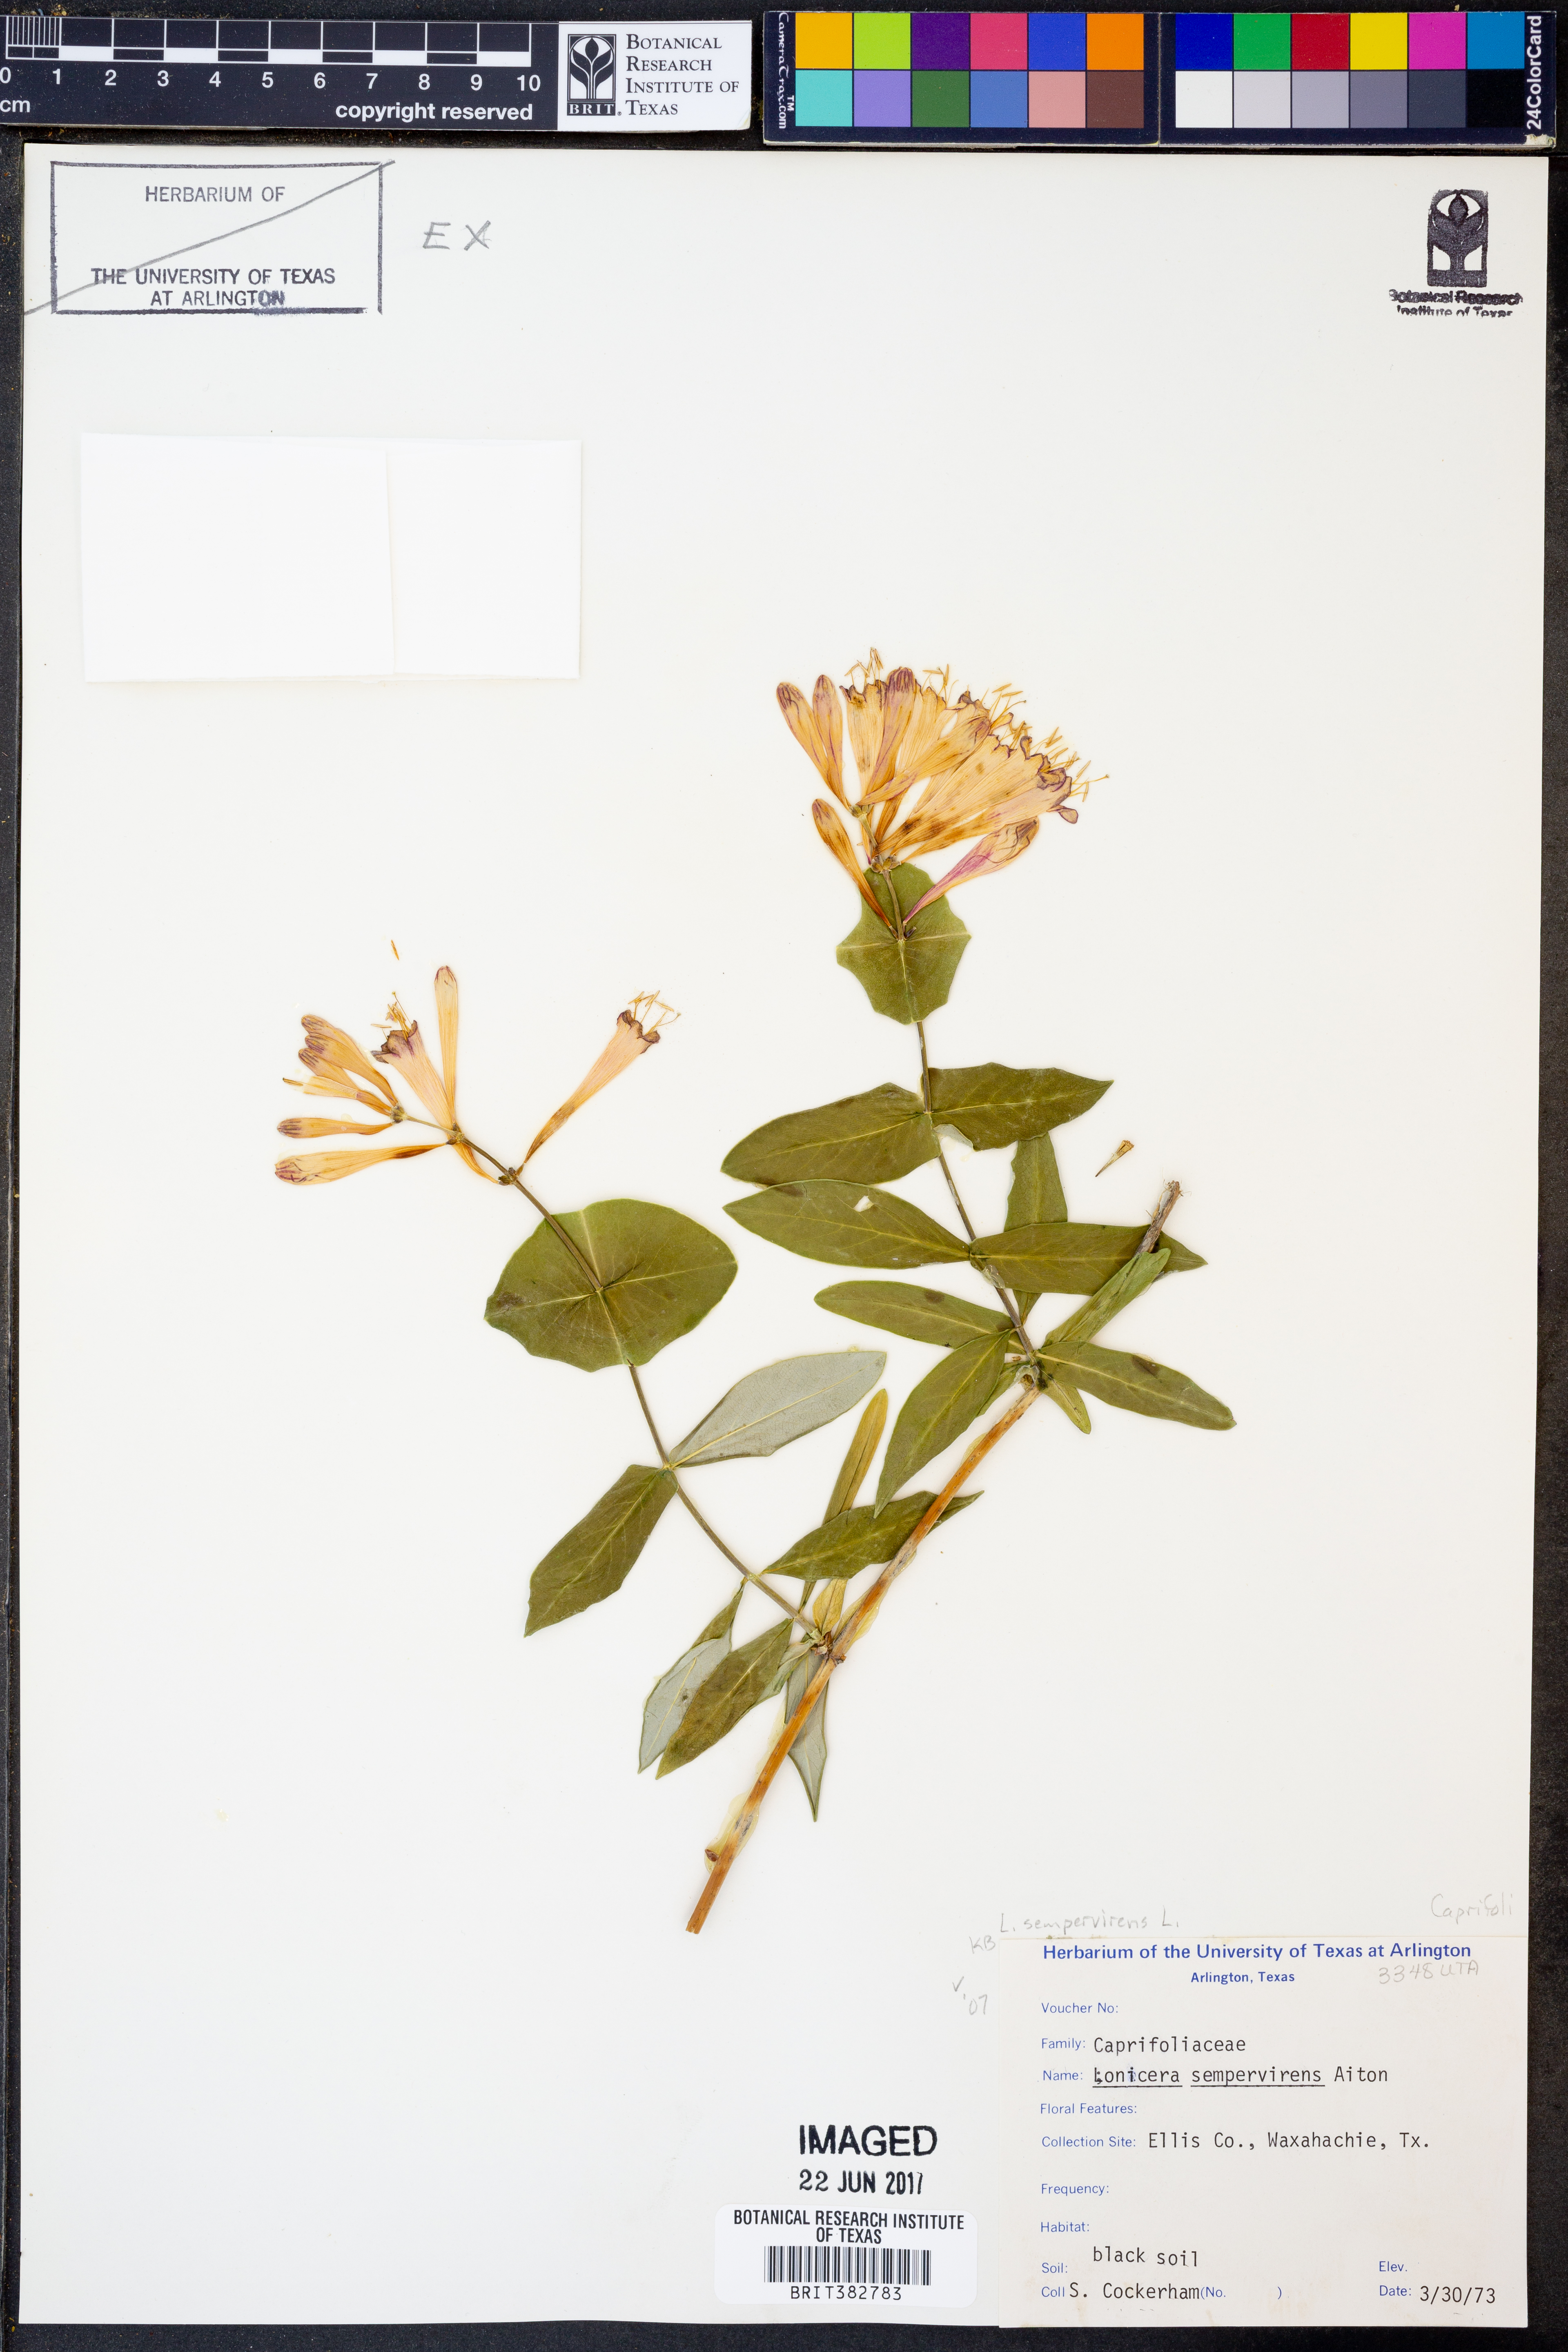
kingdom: Plantae
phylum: Tracheophyta
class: Magnoliopsida
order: Dipsacales
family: Caprifoliaceae
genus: Lonicera
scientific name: Lonicera sempervirens
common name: Coral honeysuckle
